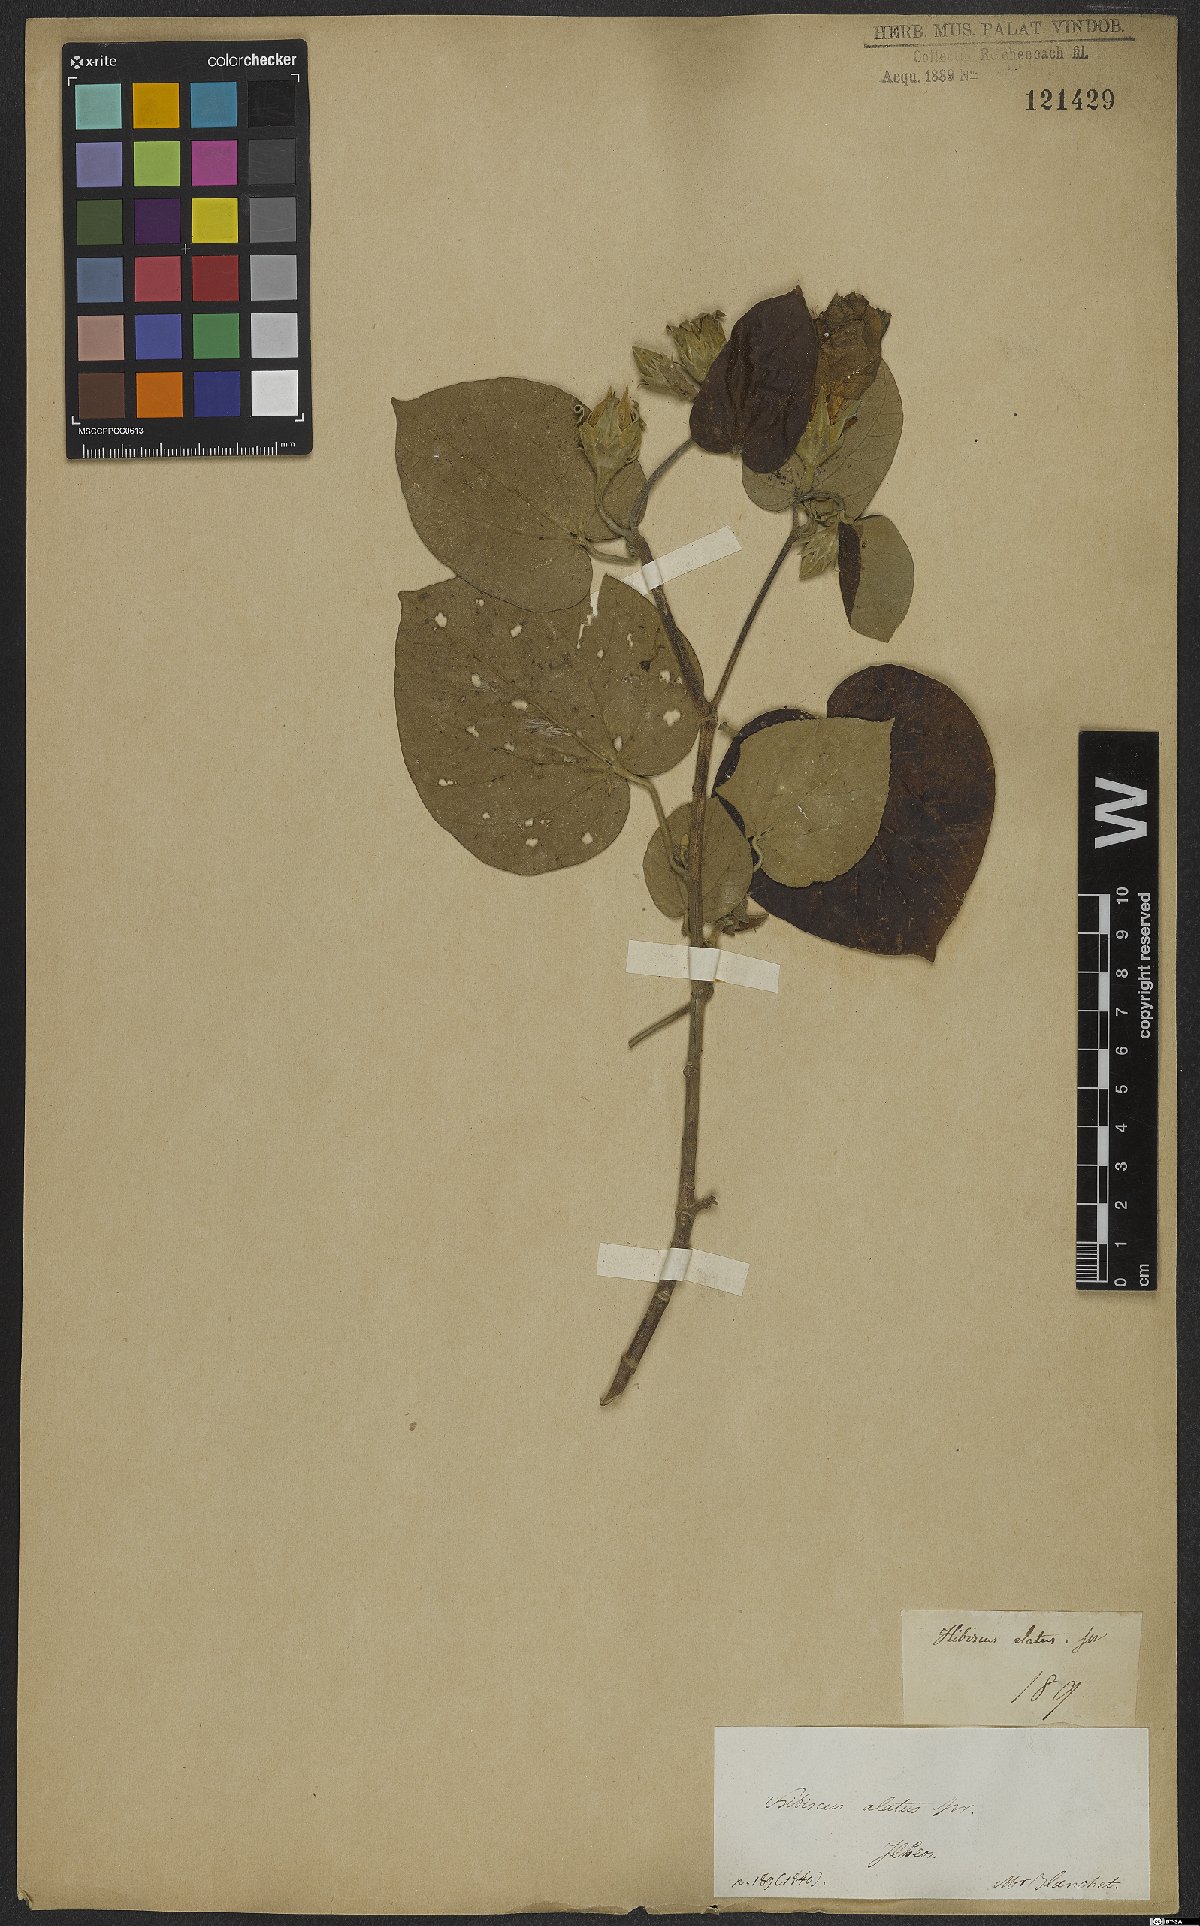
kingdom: Plantae
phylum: Tracheophyta
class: Magnoliopsida
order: Malvales
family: Malvaceae
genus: Talipariti
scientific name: Talipariti elatum
